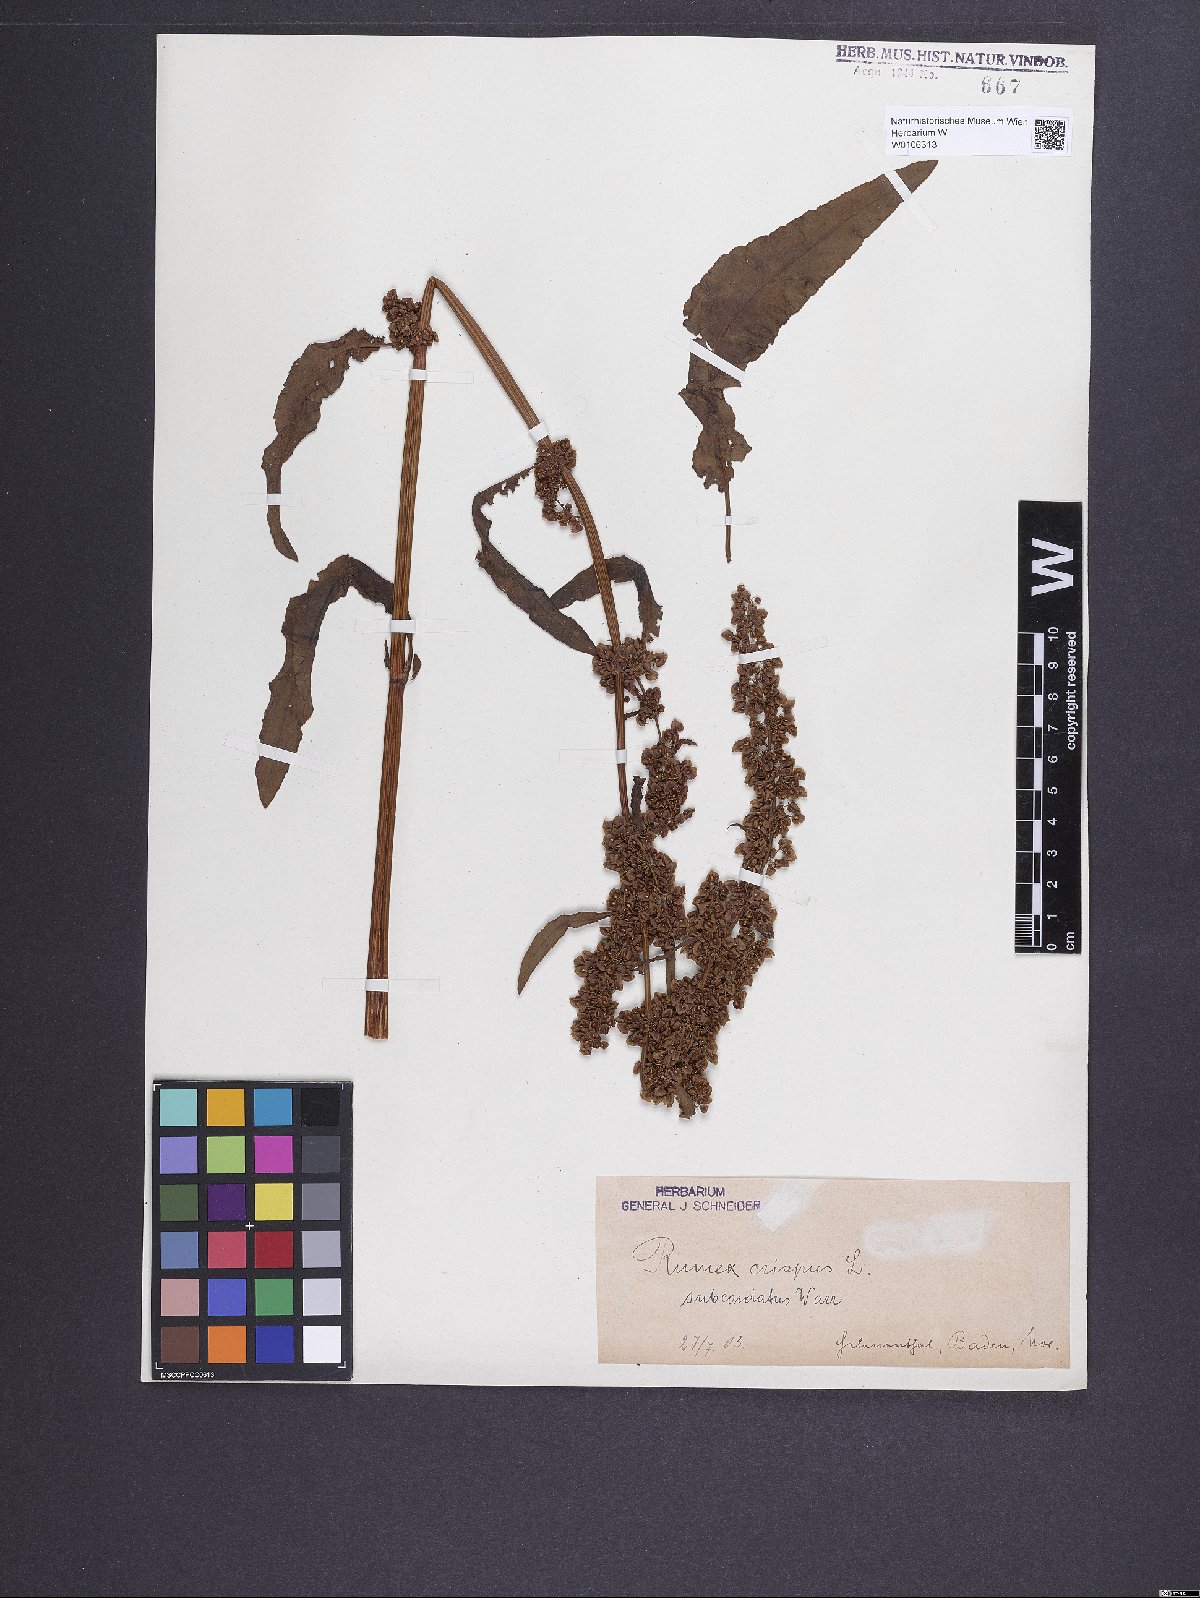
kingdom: Plantae
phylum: Tracheophyta
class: Magnoliopsida
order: Caryophyllales
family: Polygonaceae
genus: Rumex
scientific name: Rumex crispus
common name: Curled dock
